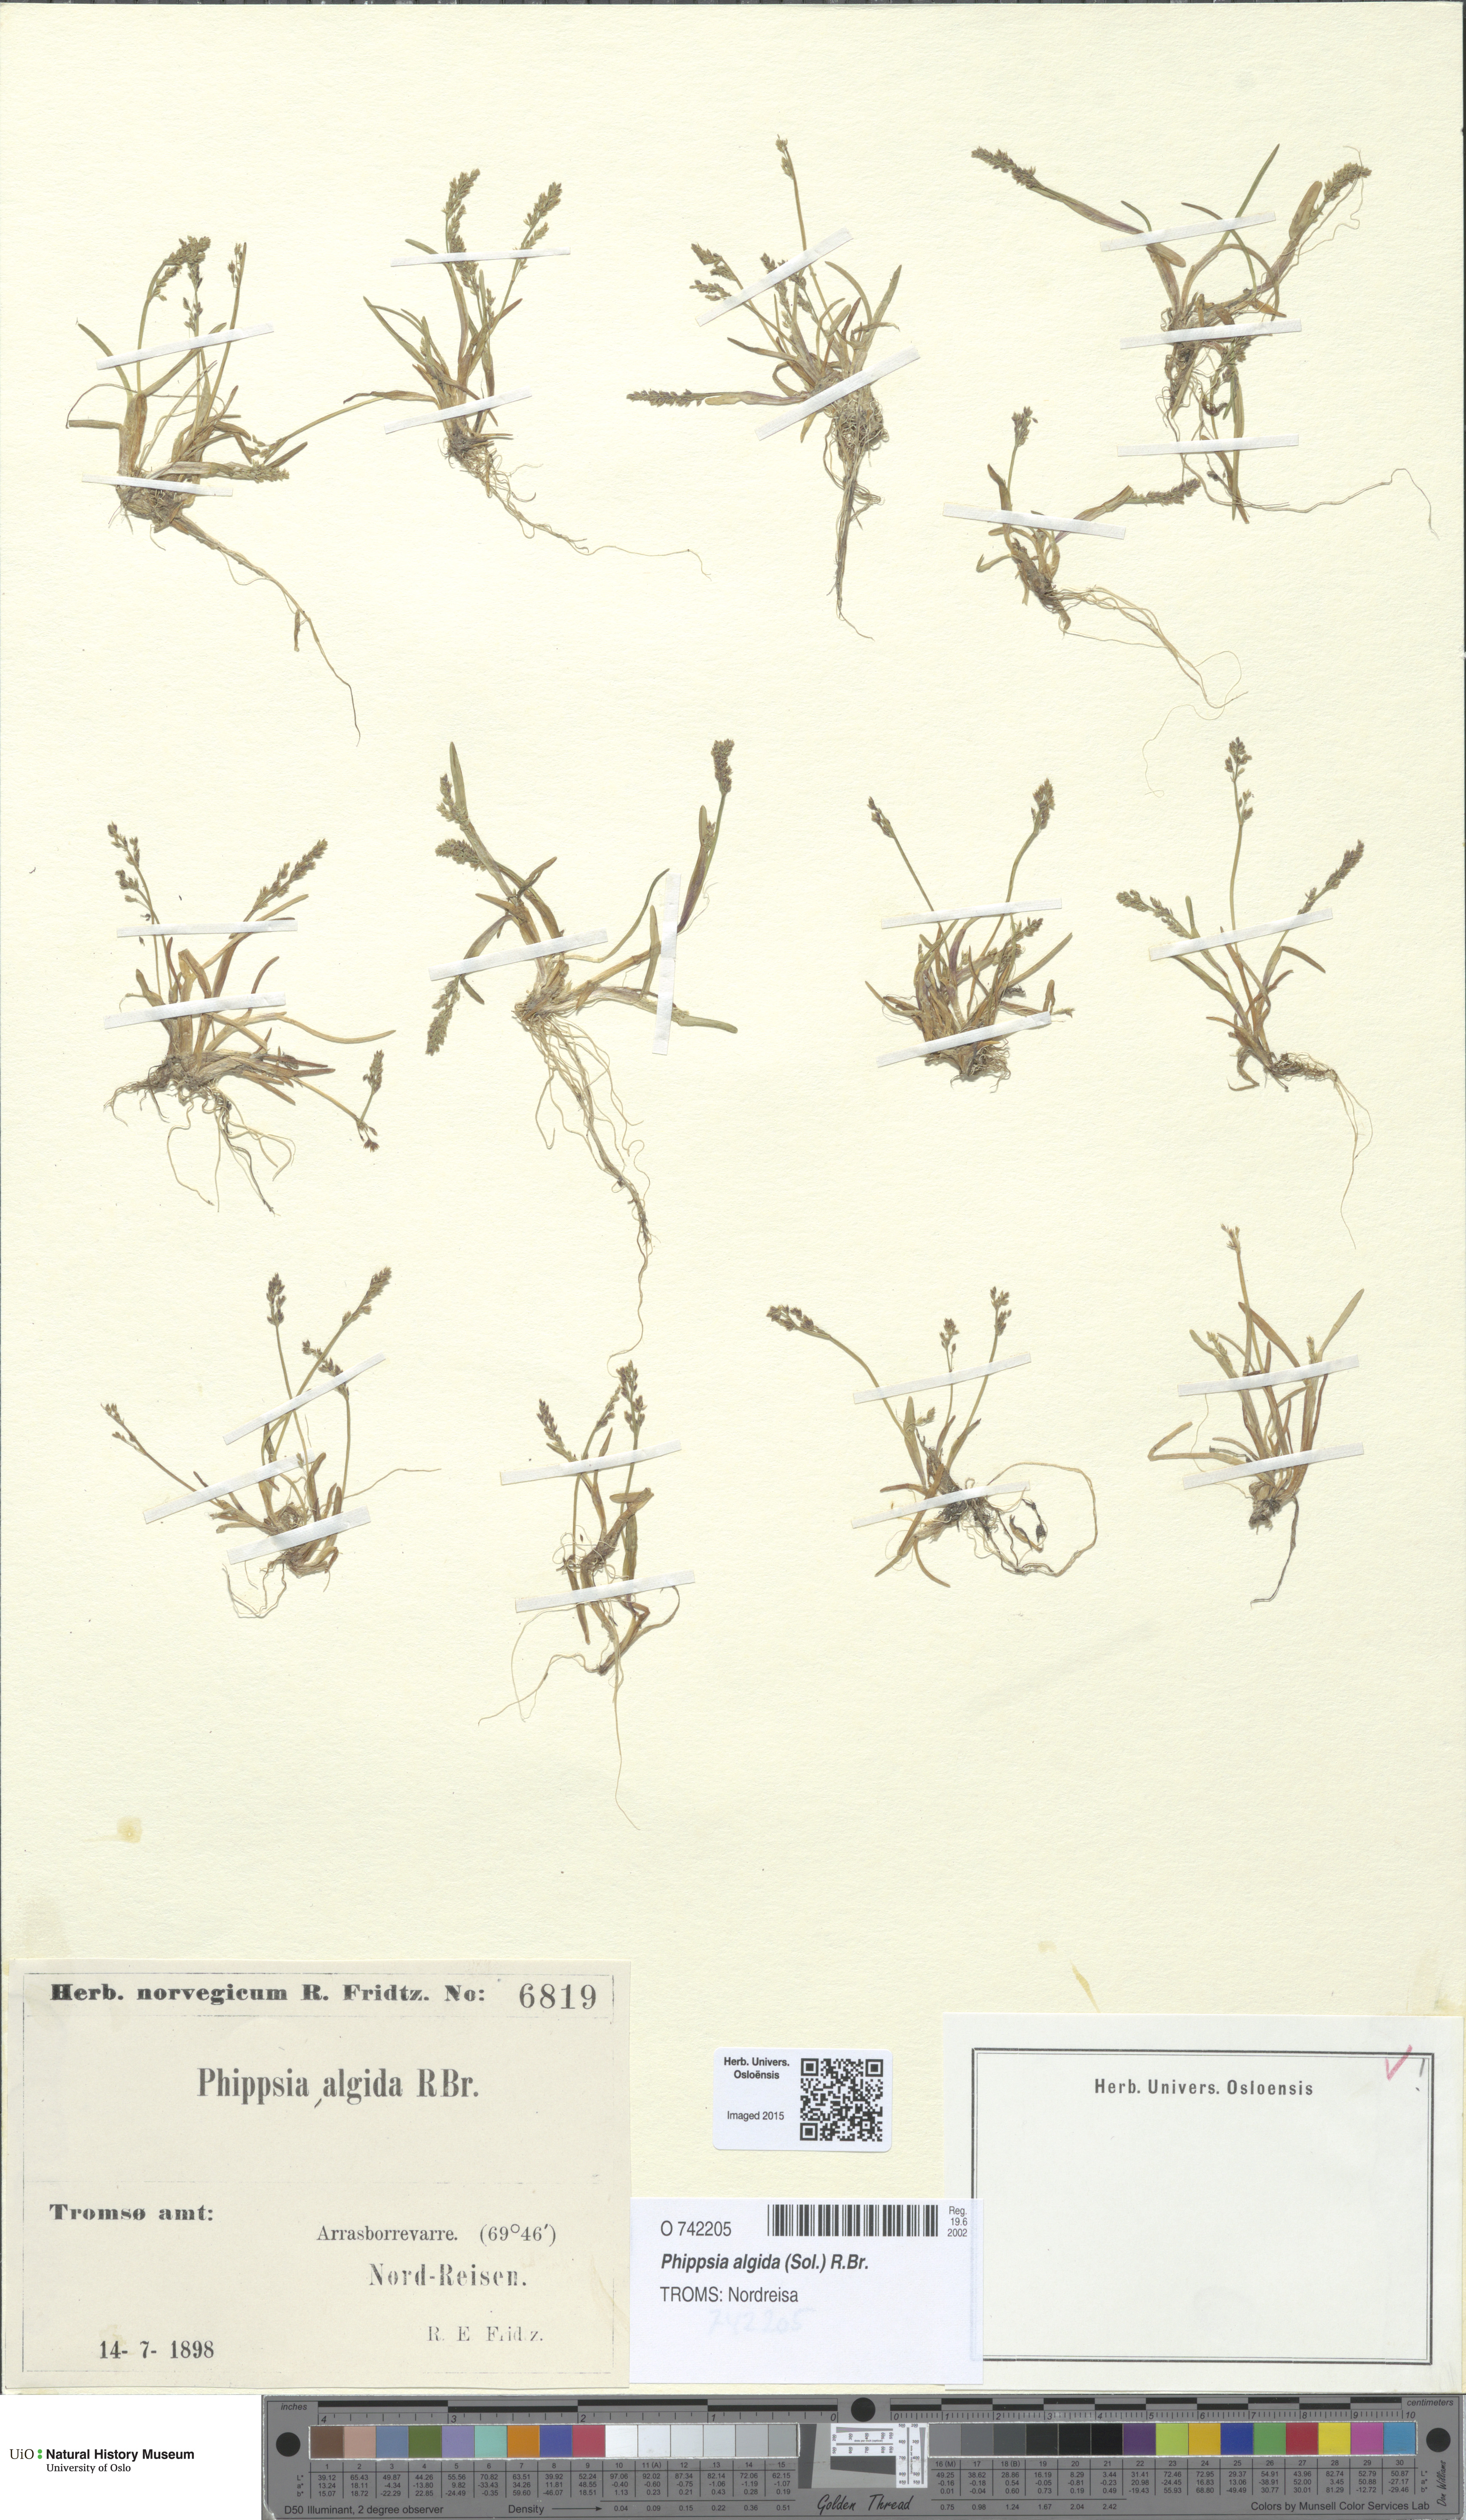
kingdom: Plantae
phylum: Tracheophyta
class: Liliopsida
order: Poales
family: Poaceae
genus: Phippsia
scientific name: Phippsia algida
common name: Ice grass
